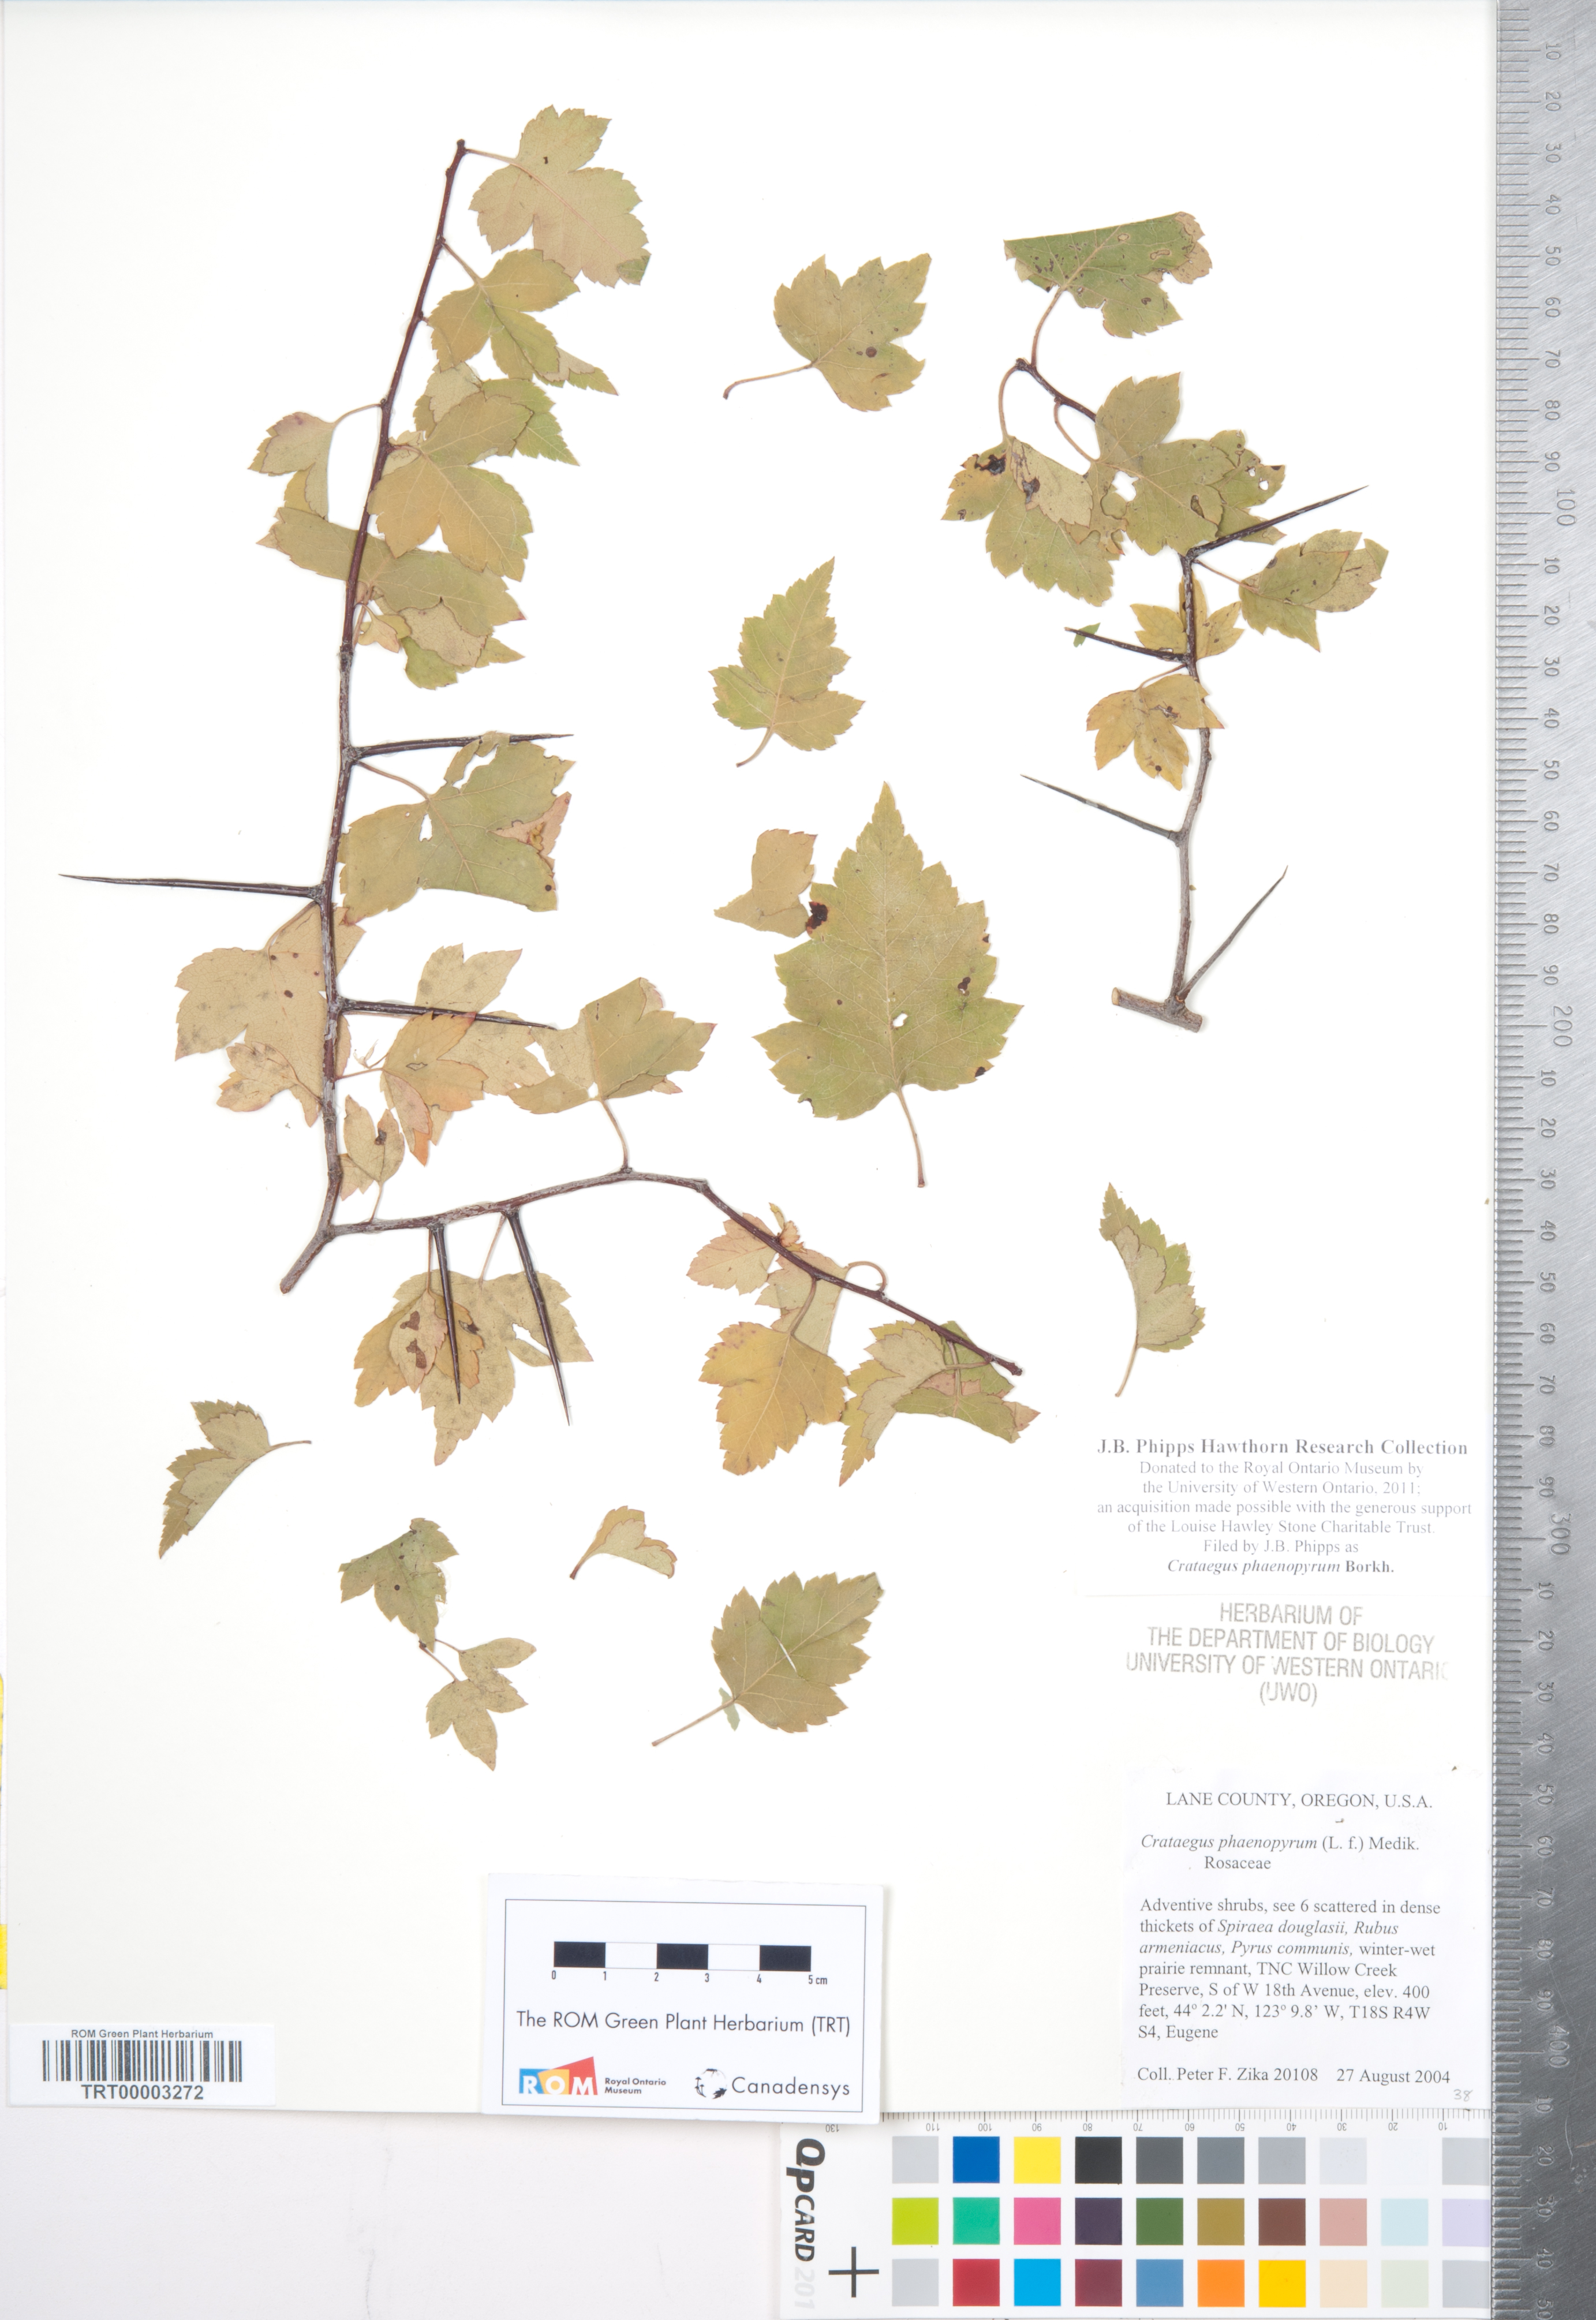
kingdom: Plantae
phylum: Tracheophyta
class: Magnoliopsida
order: Rosales
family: Rosaceae
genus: Crataegus
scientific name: Crataegus phaenopyrum
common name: Washington hawthorn
